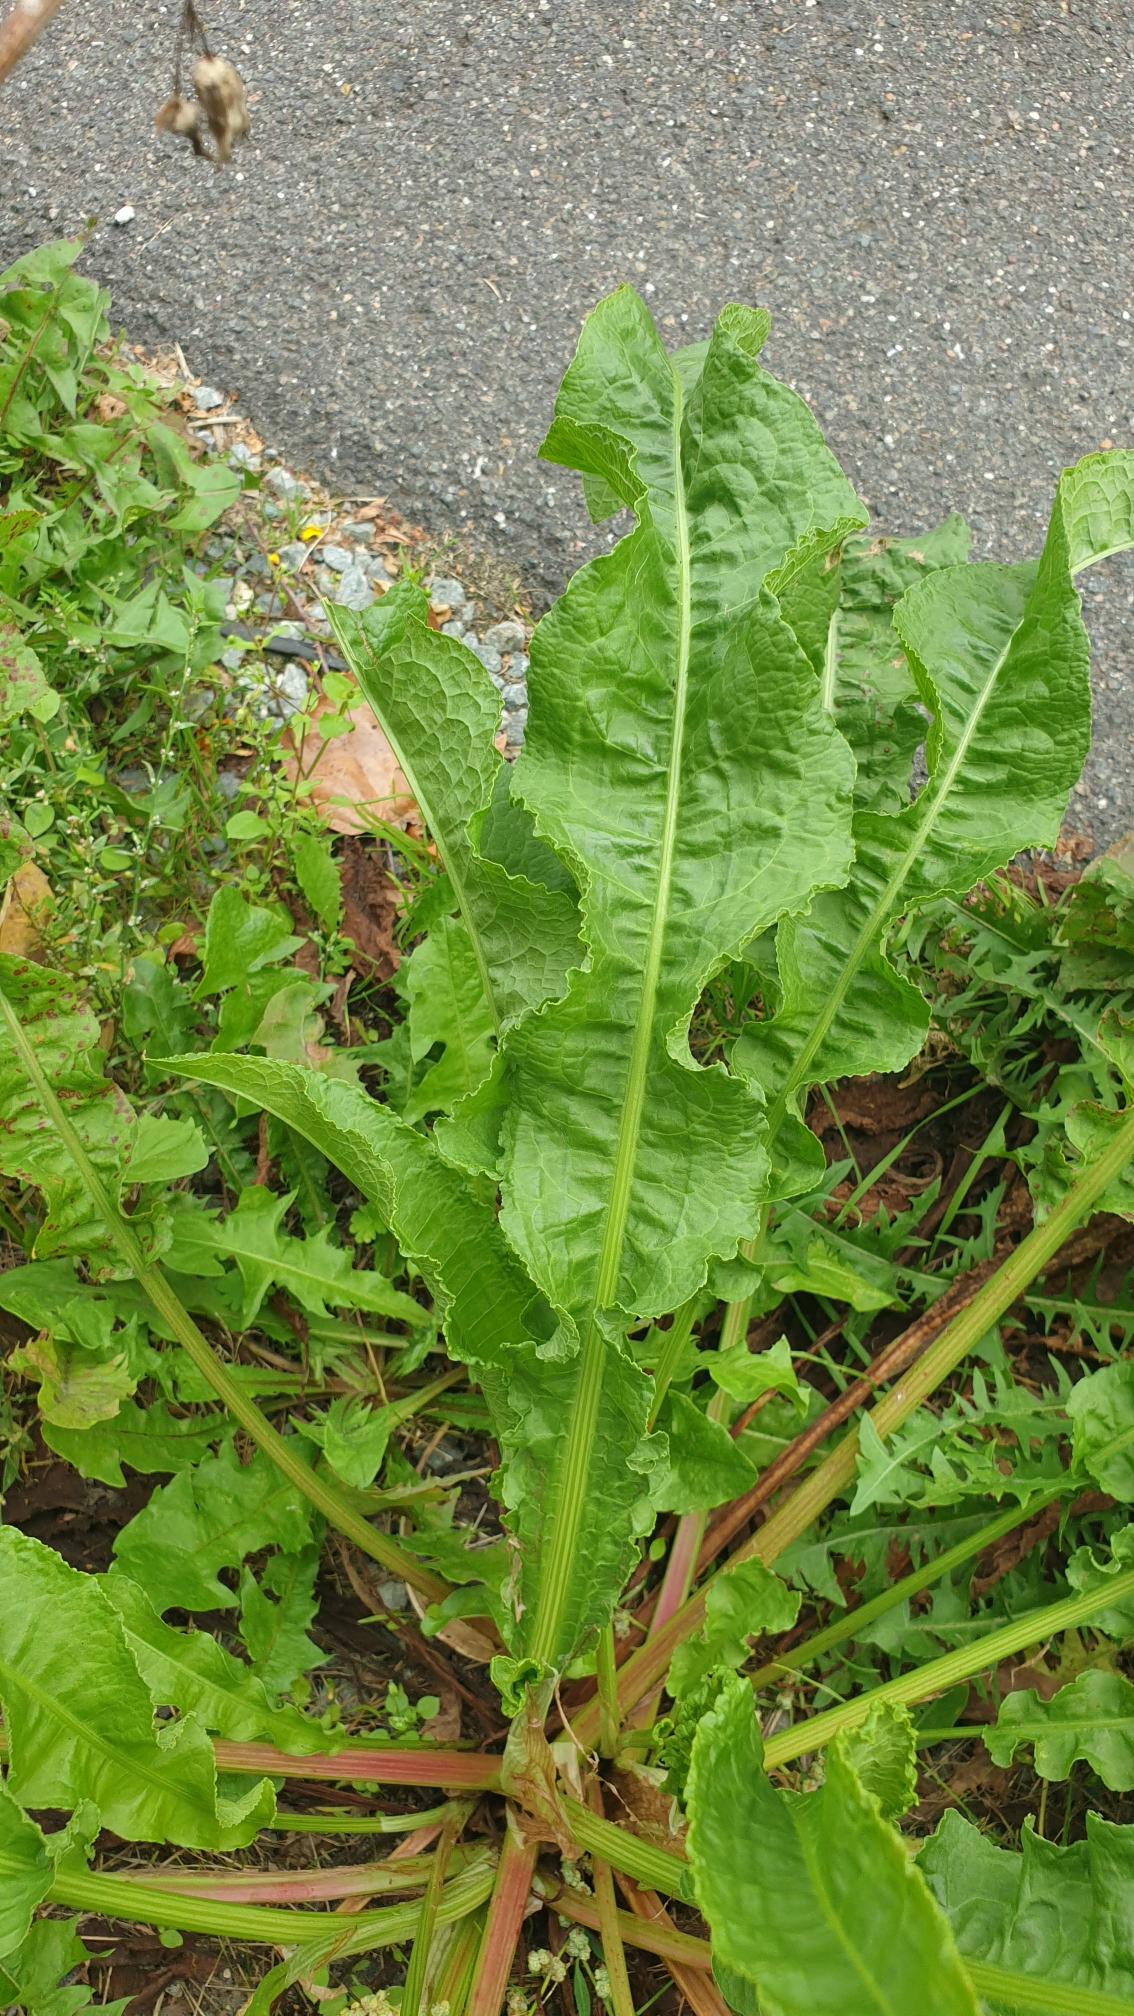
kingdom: Plantae
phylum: Tracheophyta
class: Magnoliopsida
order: Caryophyllales
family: Polygonaceae
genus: Rumex
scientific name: Rumex crispus
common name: Kruset skræppe
